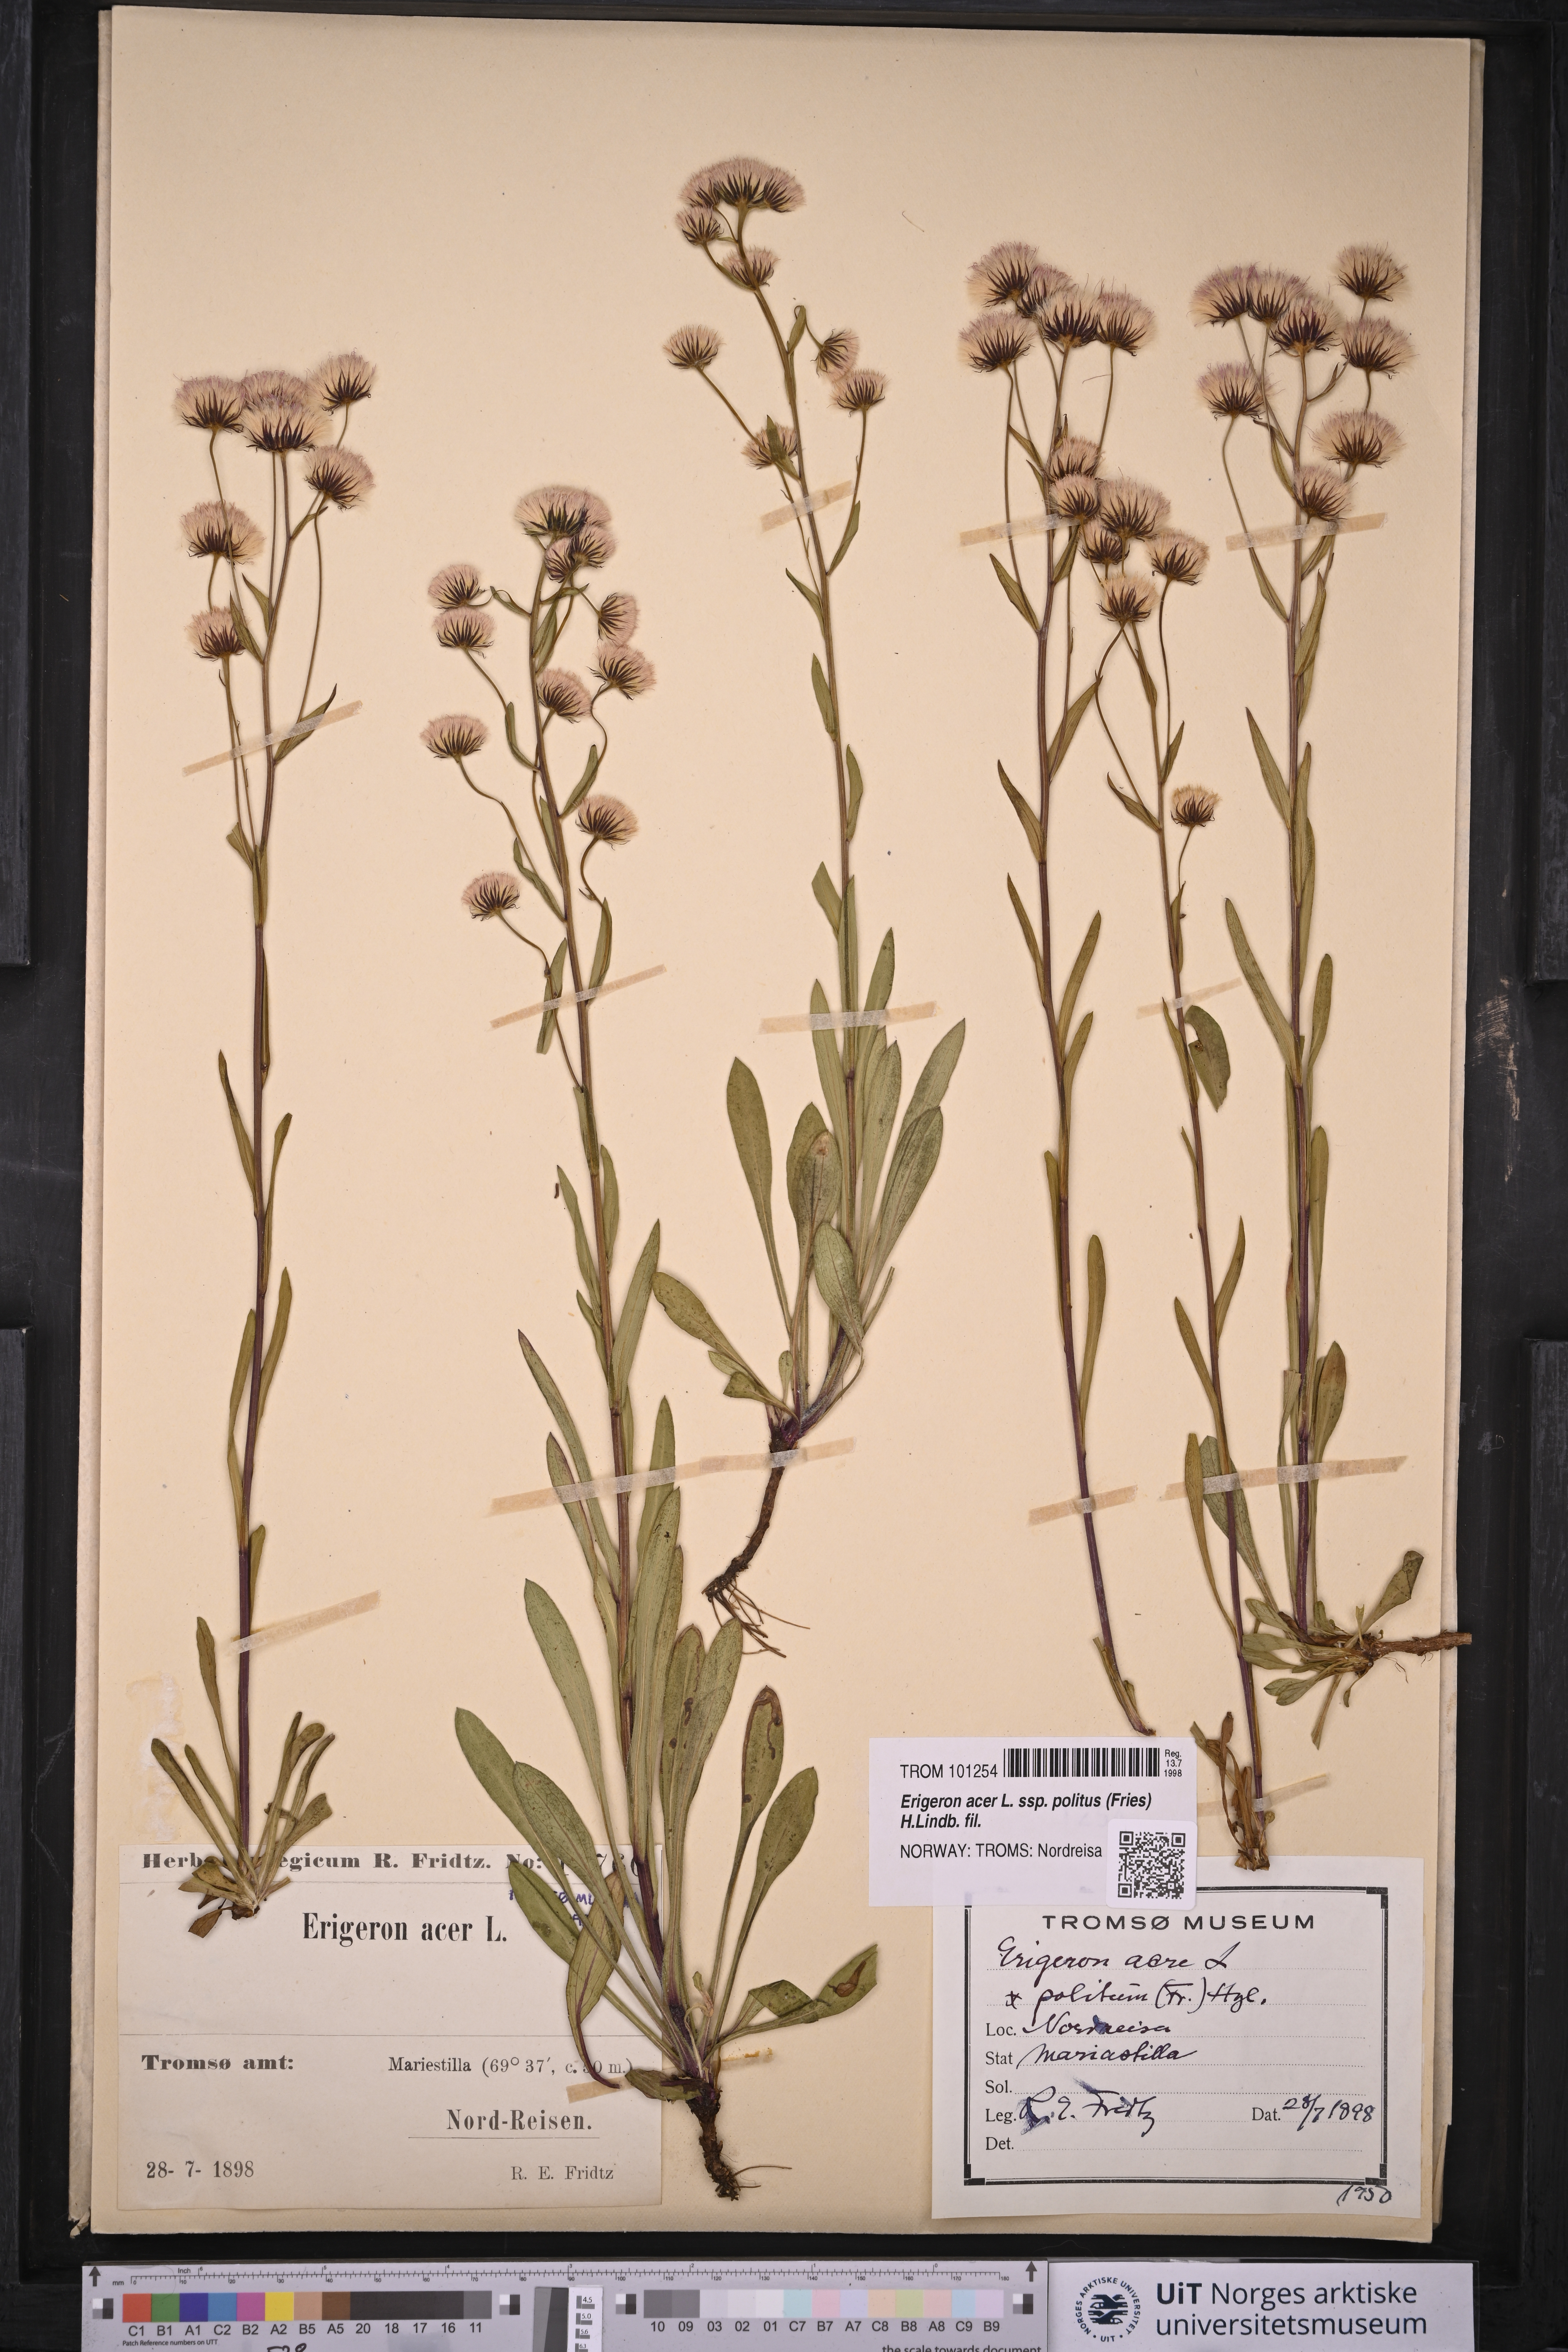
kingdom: Plantae
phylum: Tracheophyta
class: Magnoliopsida
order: Asterales
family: Asteraceae
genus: Erigeron
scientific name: Erigeron politus
